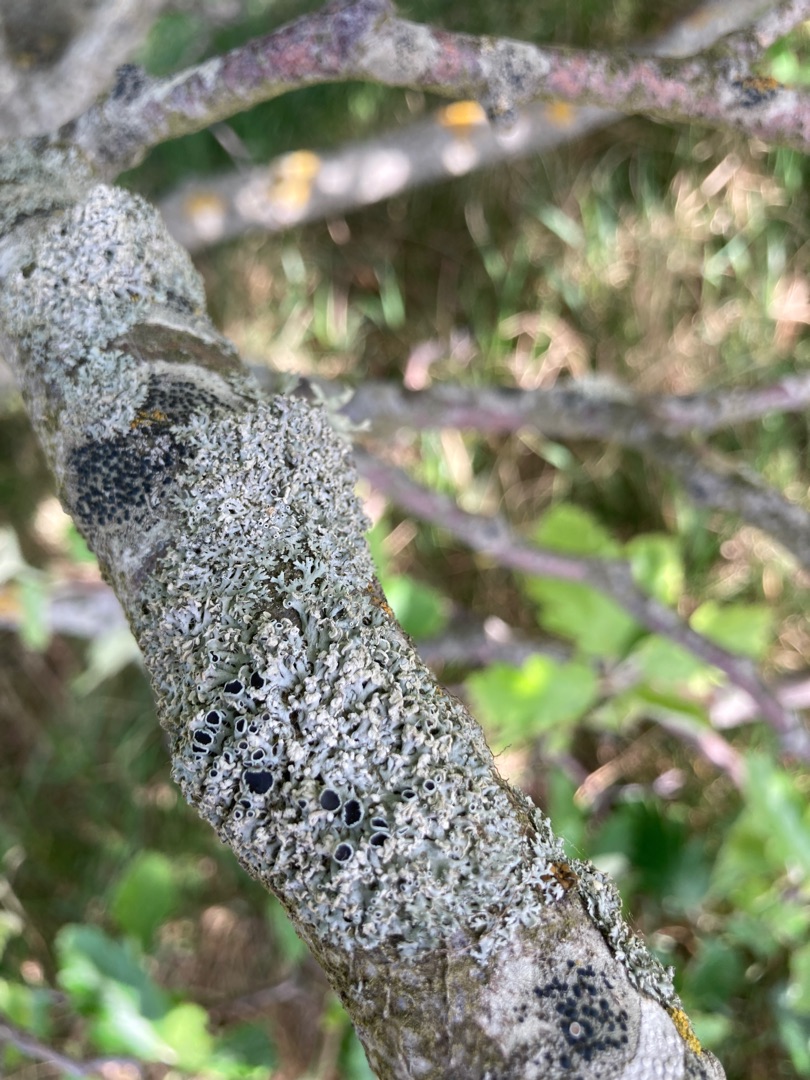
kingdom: Fungi
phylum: Ascomycota
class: Lecanoromycetes
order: Caliciales
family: Physciaceae
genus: Physcia
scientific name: Physcia tenella
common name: Spæd rosetlav
